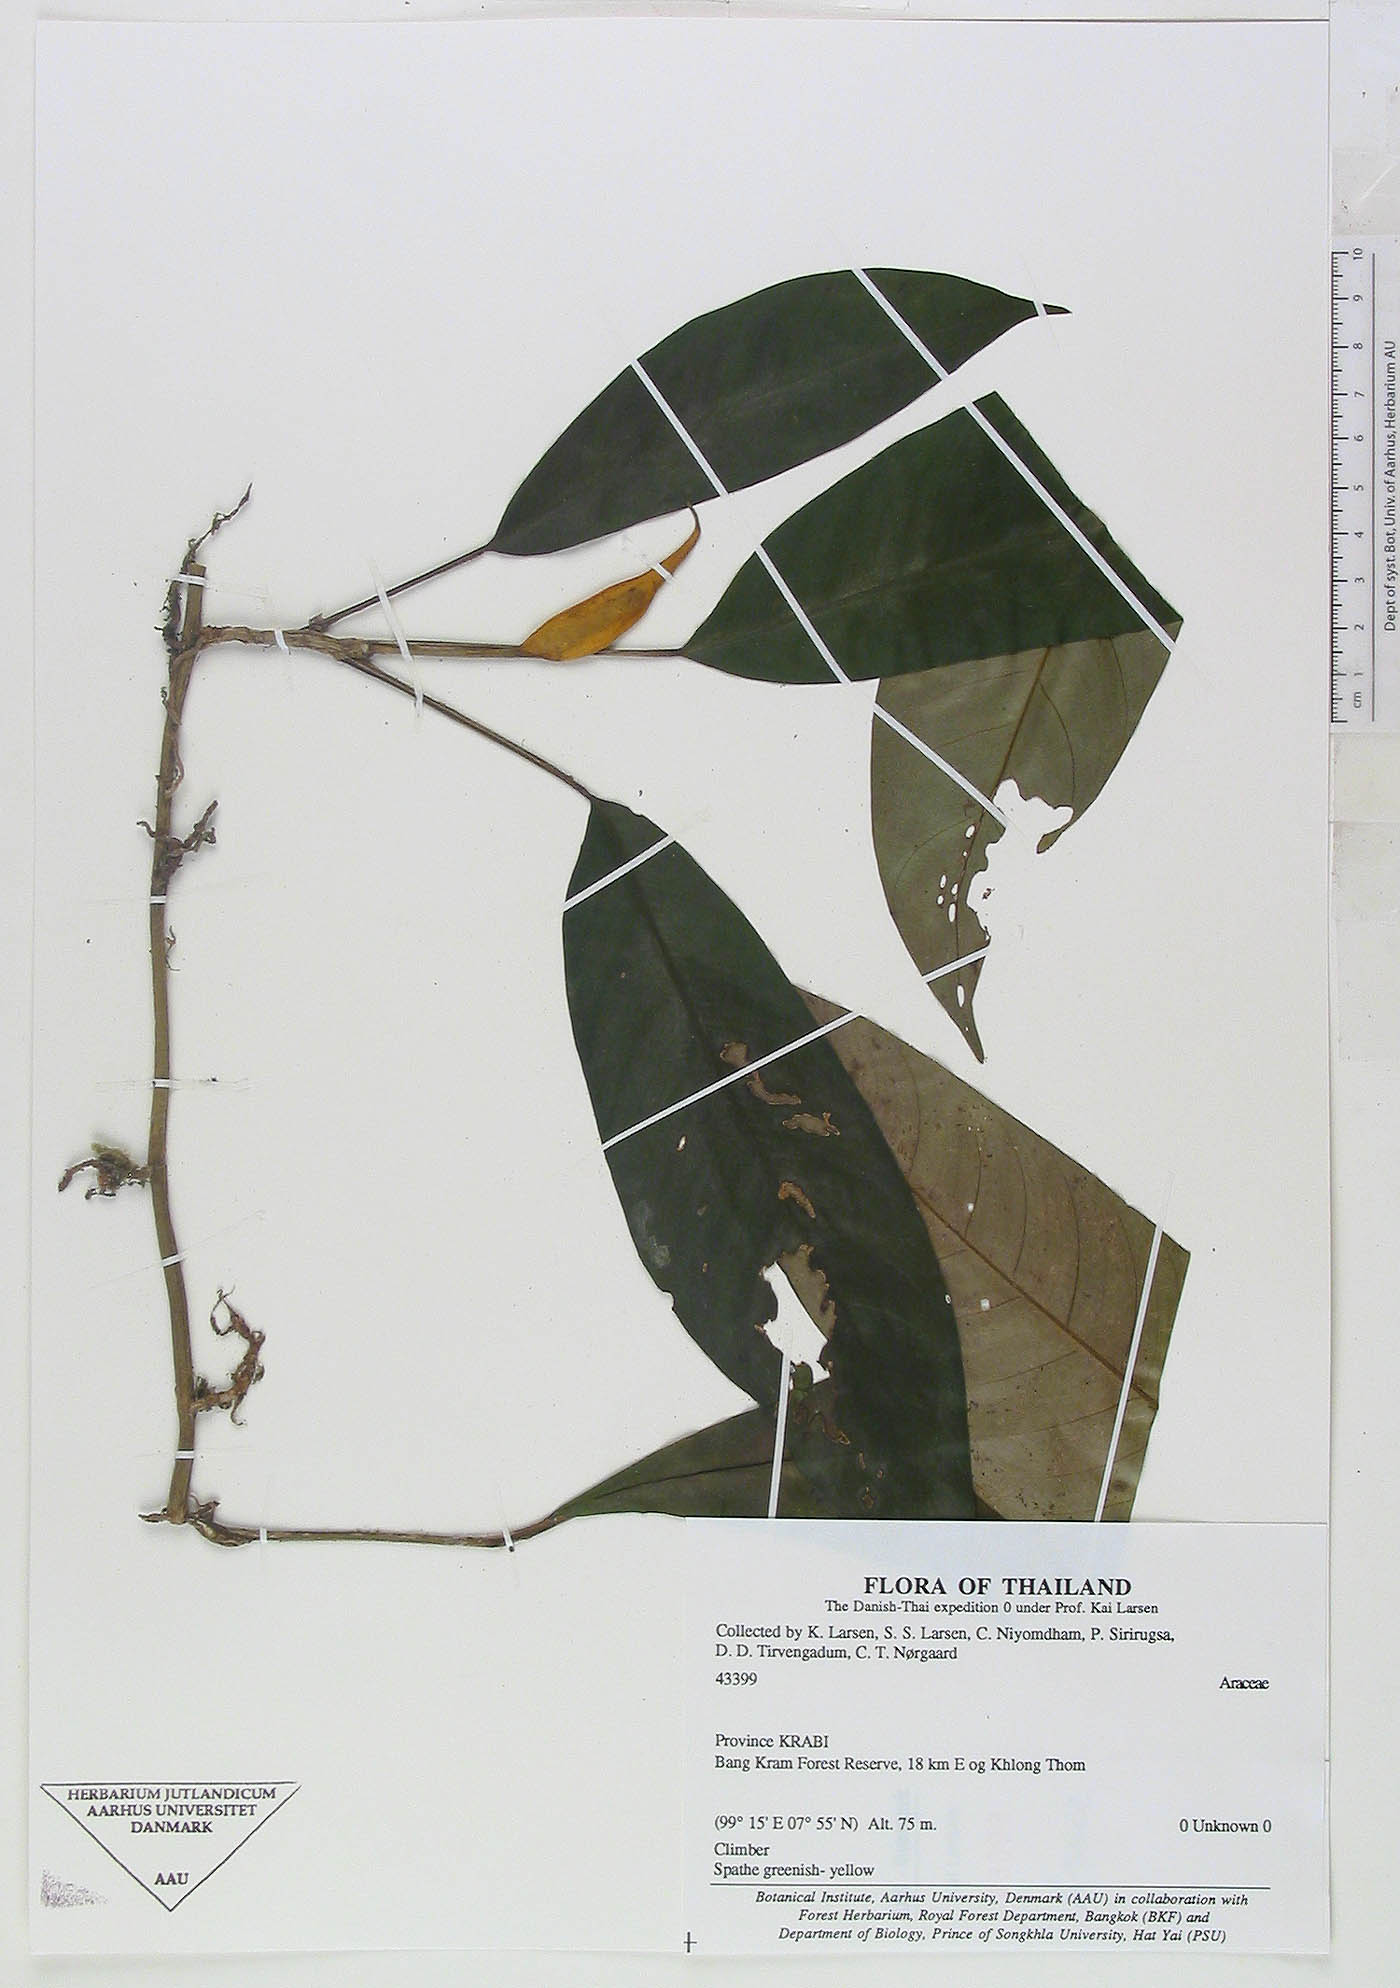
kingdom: Plantae
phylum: Tracheophyta
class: Liliopsida
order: Alismatales
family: Araceae
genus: Rhaphidophora
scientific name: Rhaphidophora lobbii
